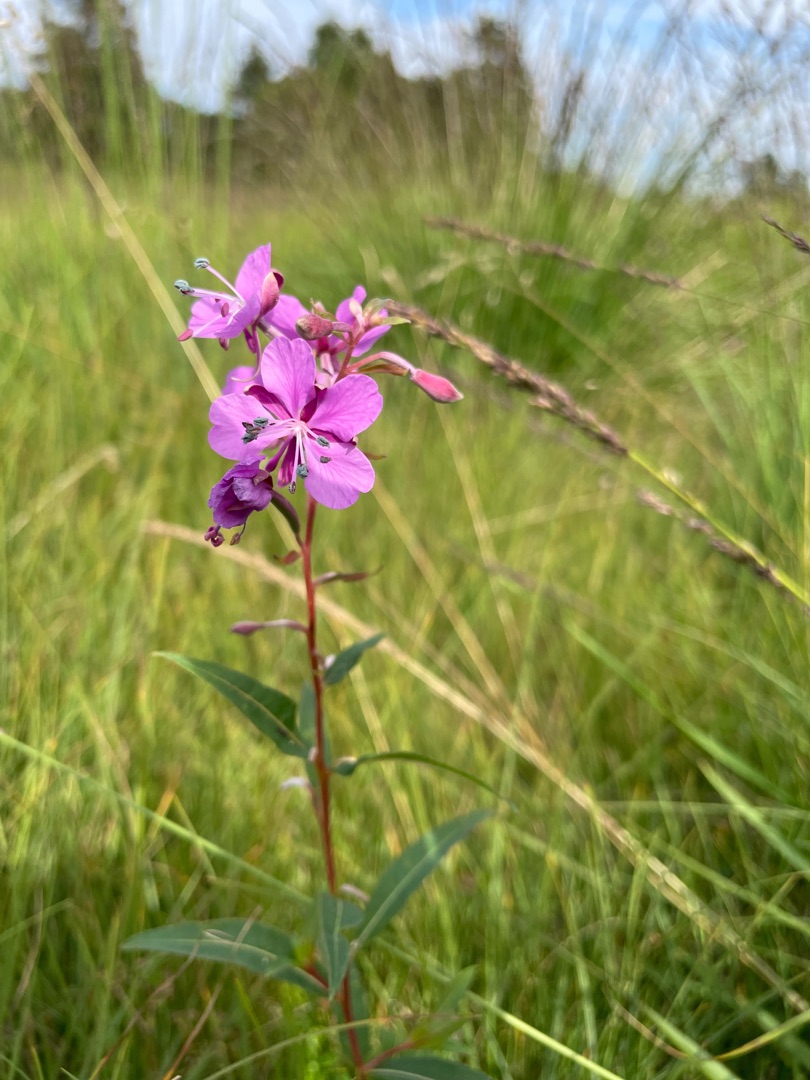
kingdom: Plantae
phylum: Tracheophyta
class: Magnoliopsida
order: Myrtales
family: Onagraceae
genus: Chamaenerion
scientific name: Chamaenerion angustifolium
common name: Gederams
